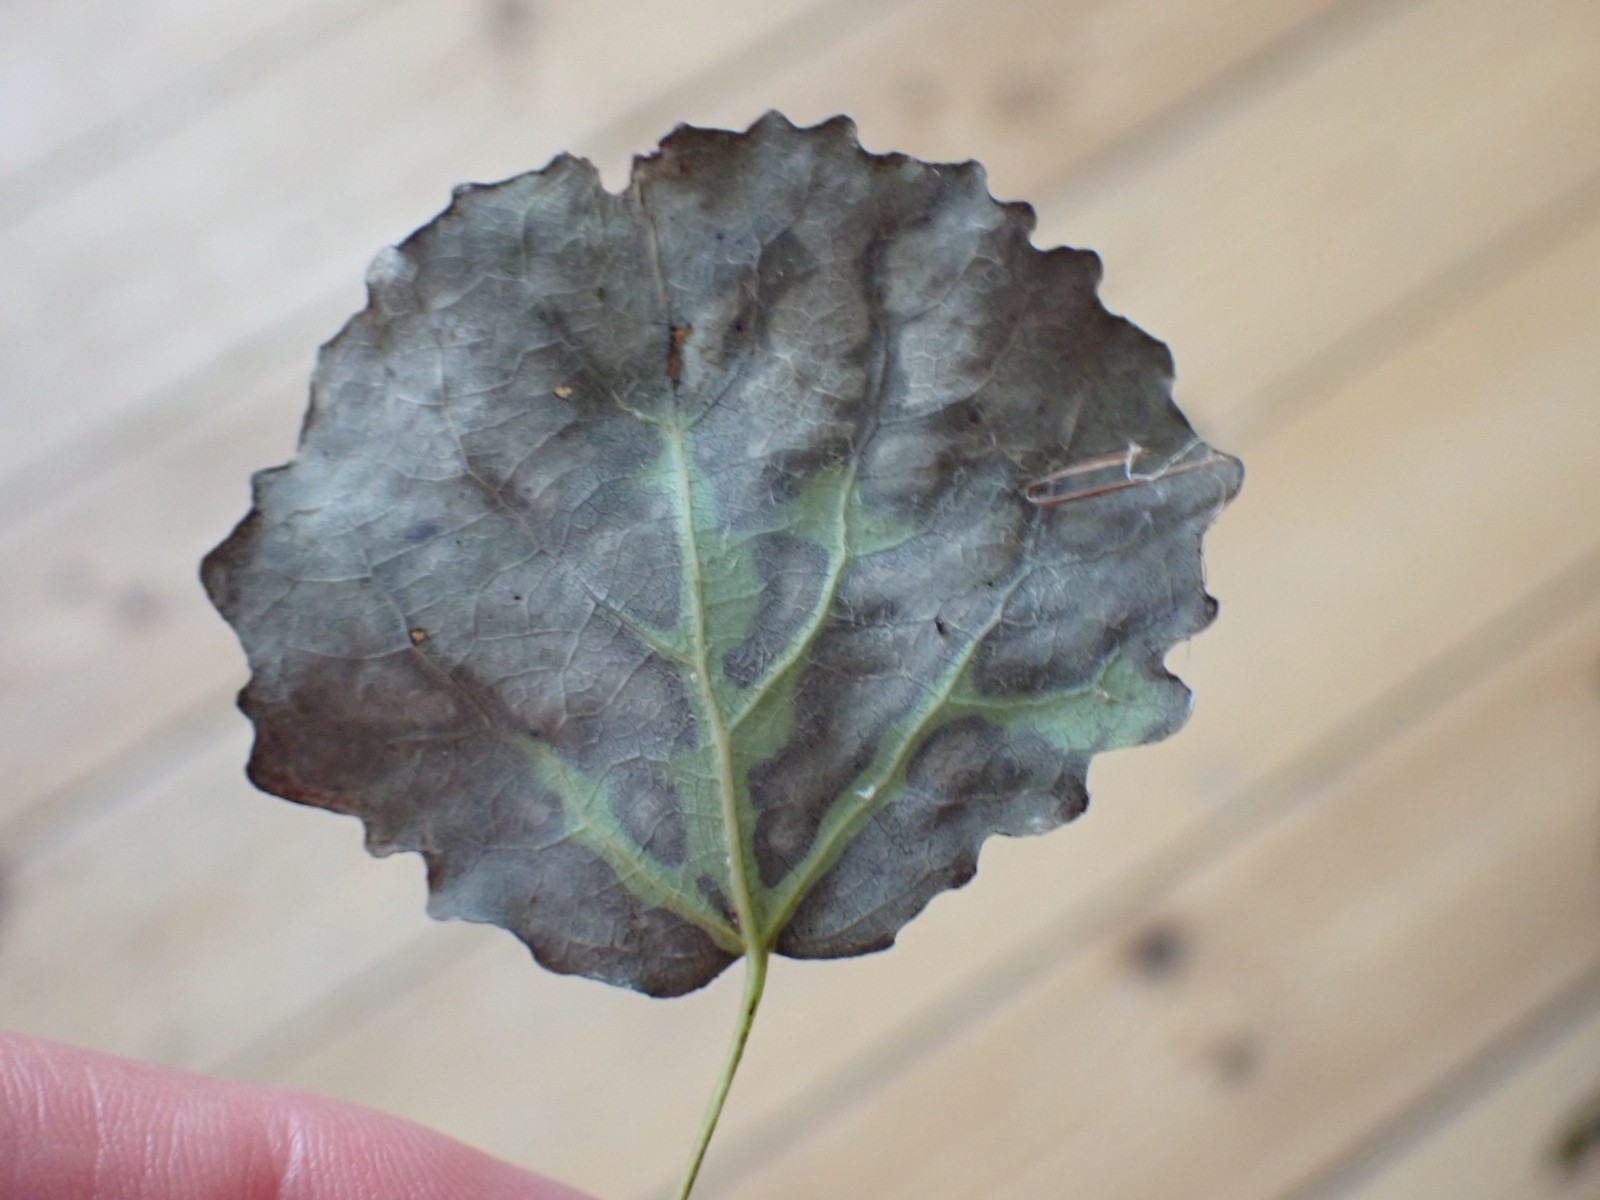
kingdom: Fungi
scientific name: Fungi
